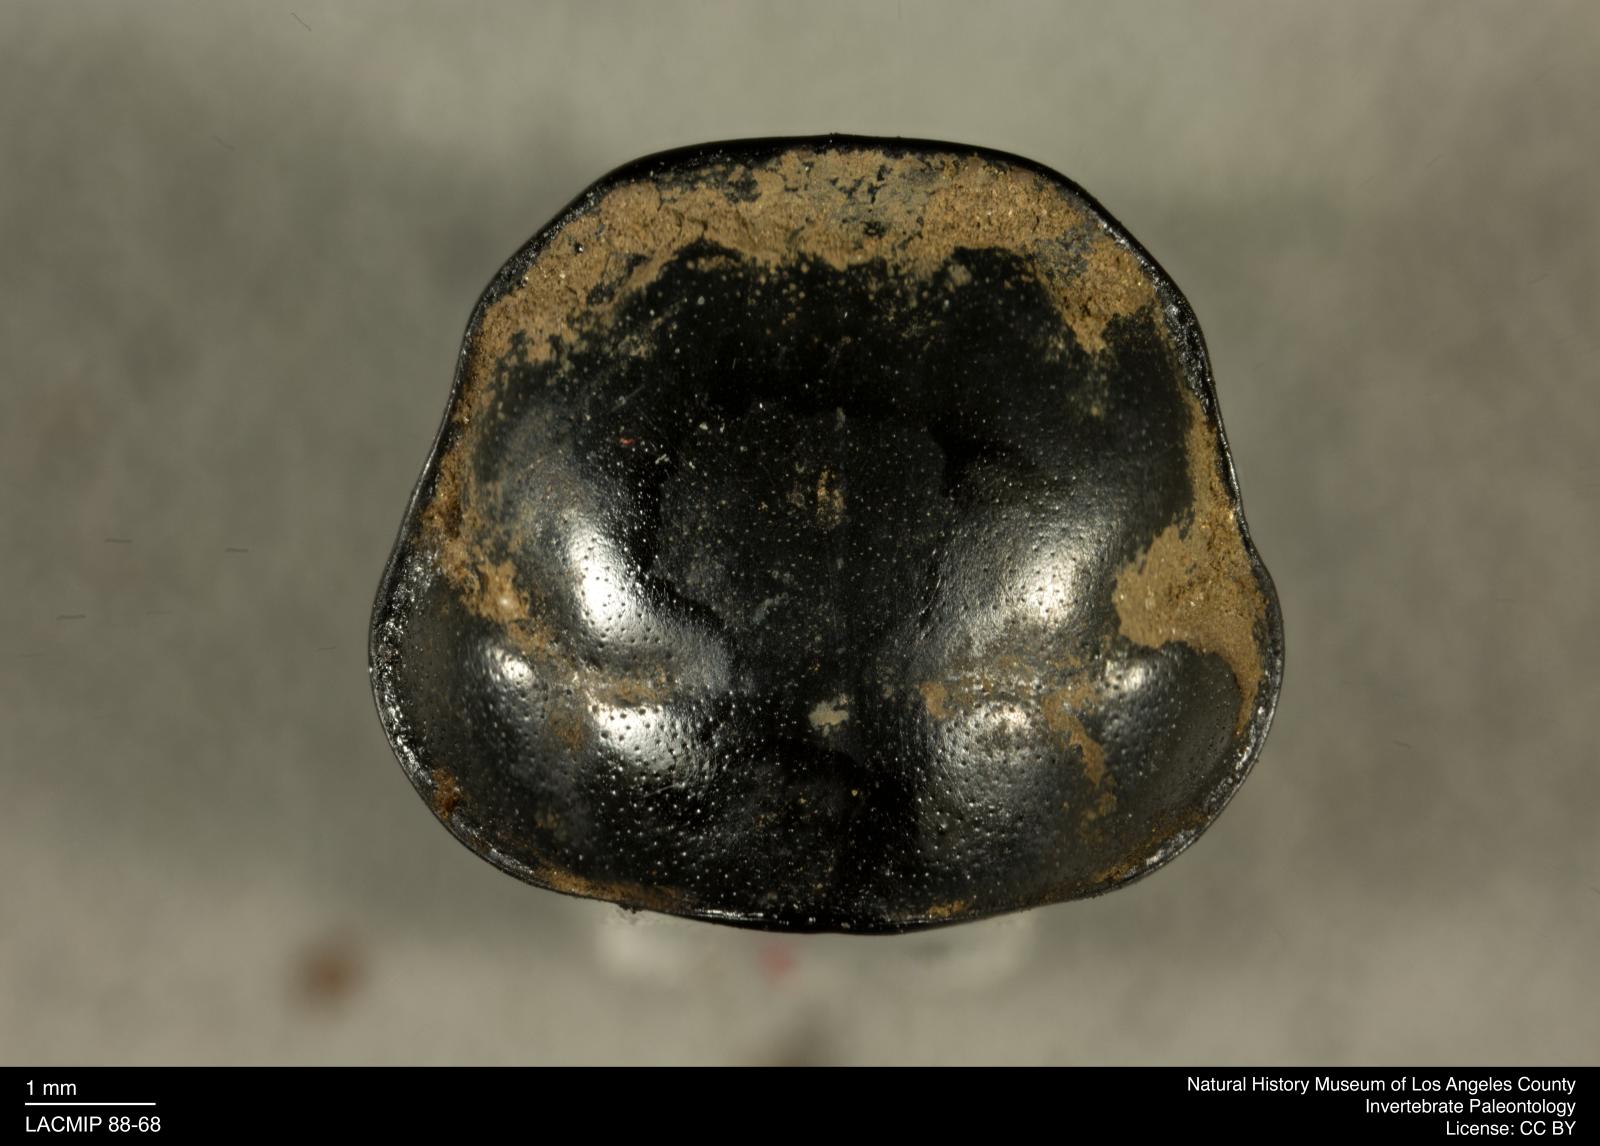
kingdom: Animalia
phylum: Arthropoda
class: Insecta
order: Coleoptera
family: Staphylinidae
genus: Nicrophorus
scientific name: Nicrophorus marginatus
